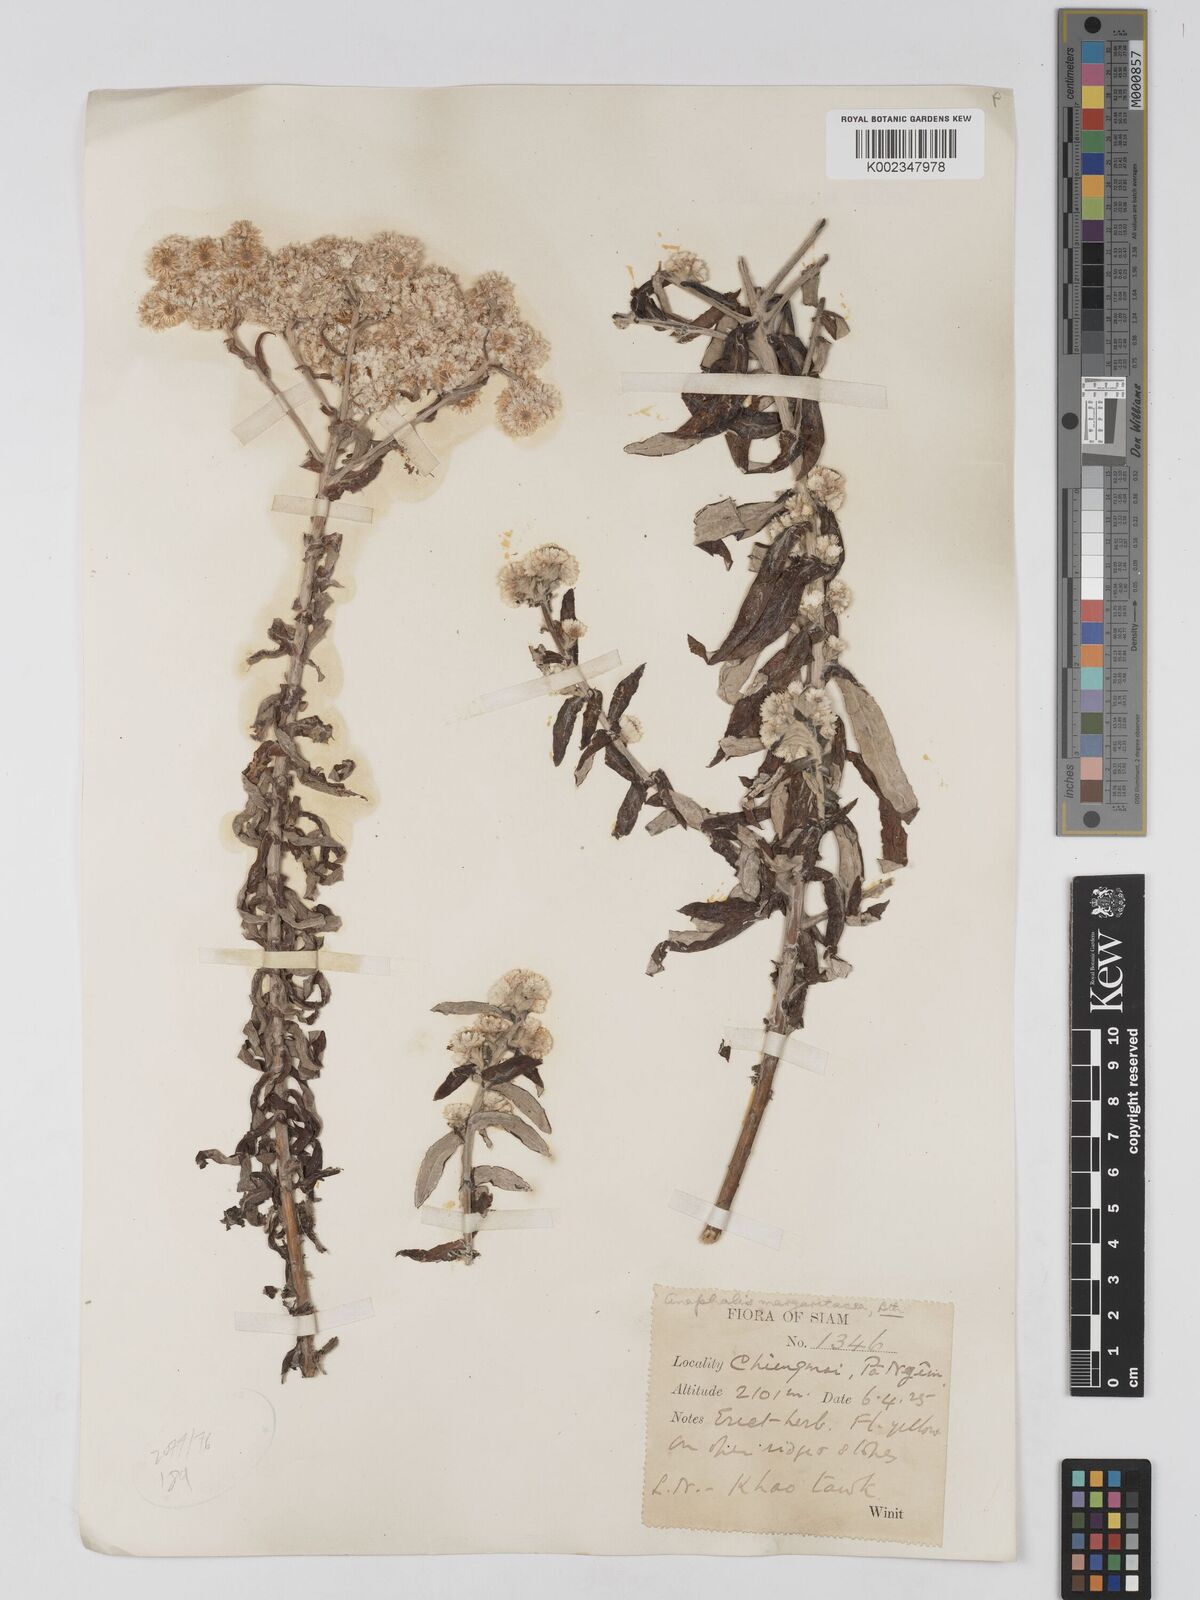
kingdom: Plantae
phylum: Tracheophyta
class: Magnoliopsida
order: Asterales
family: Asteraceae
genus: Anaphalis
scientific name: Anaphalis margaritacea
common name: Pearly everlasting
